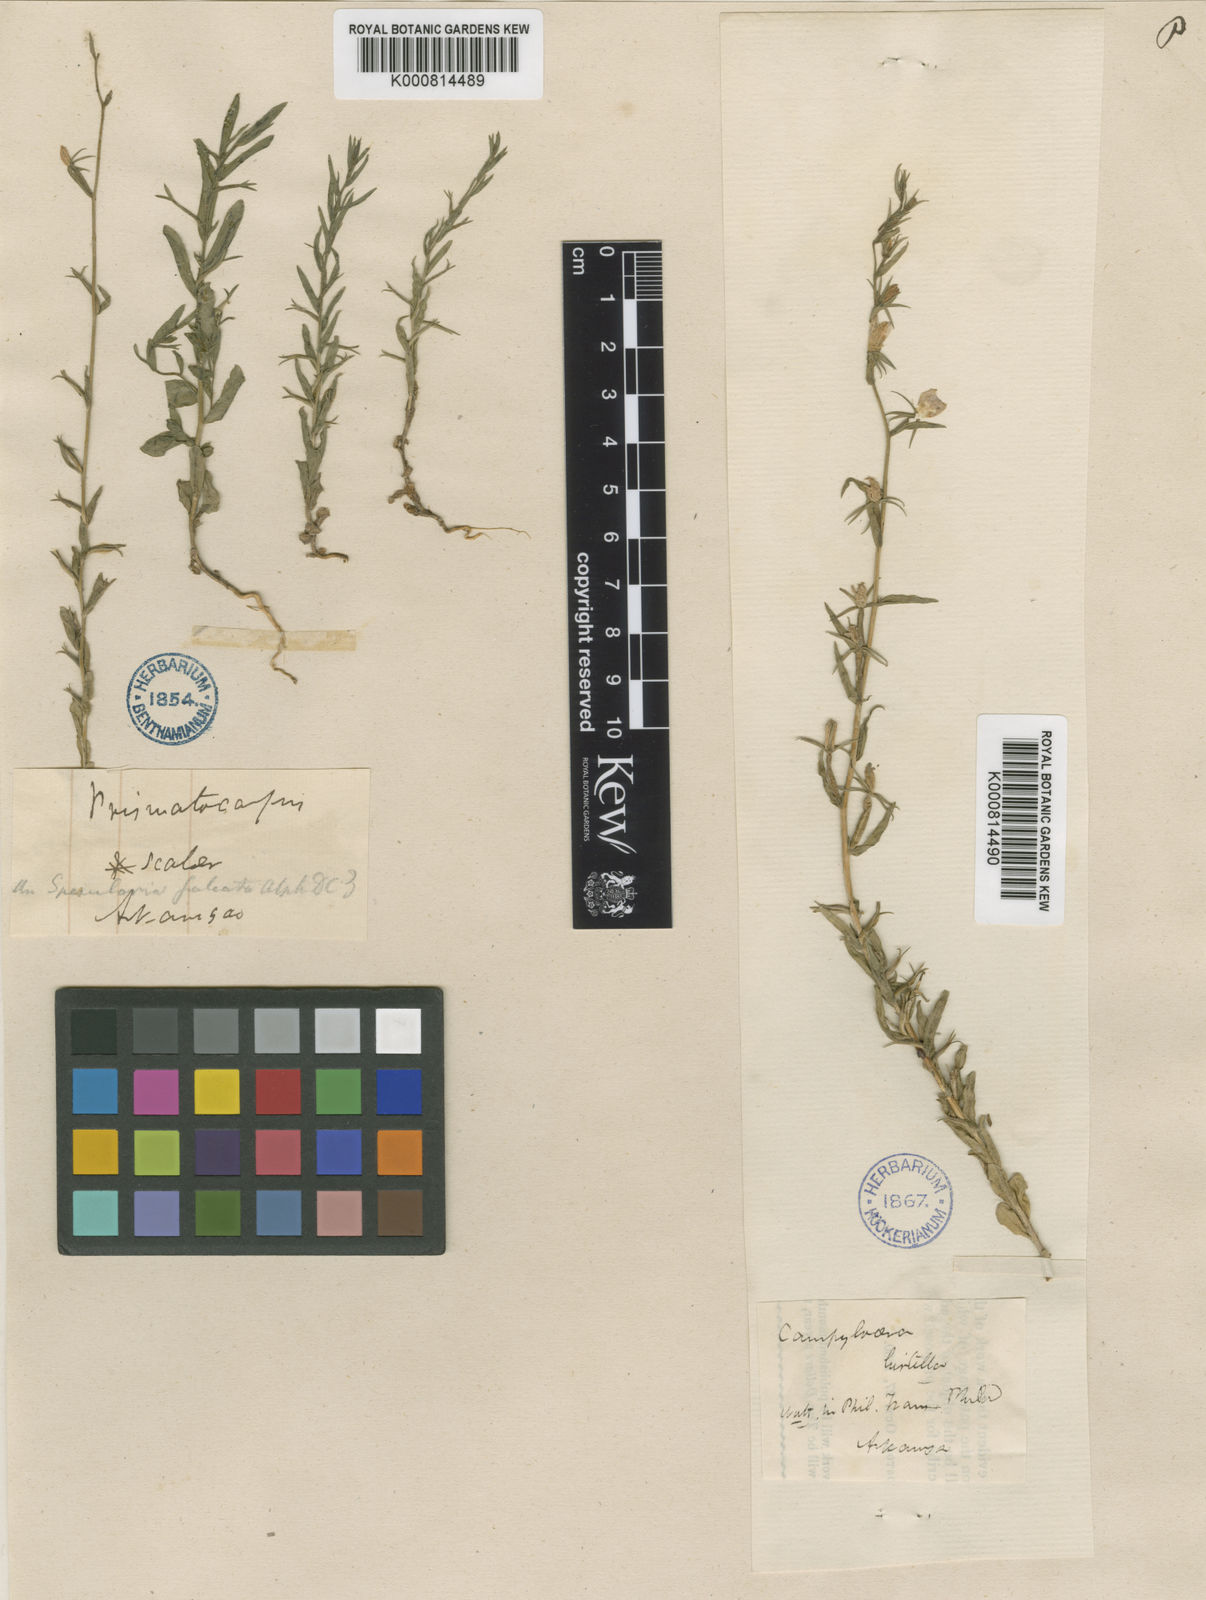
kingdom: Plantae
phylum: Tracheophyta
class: Magnoliopsida
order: Asterales
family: Campanulaceae
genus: Triodanis
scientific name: Triodanis leptocarpa
